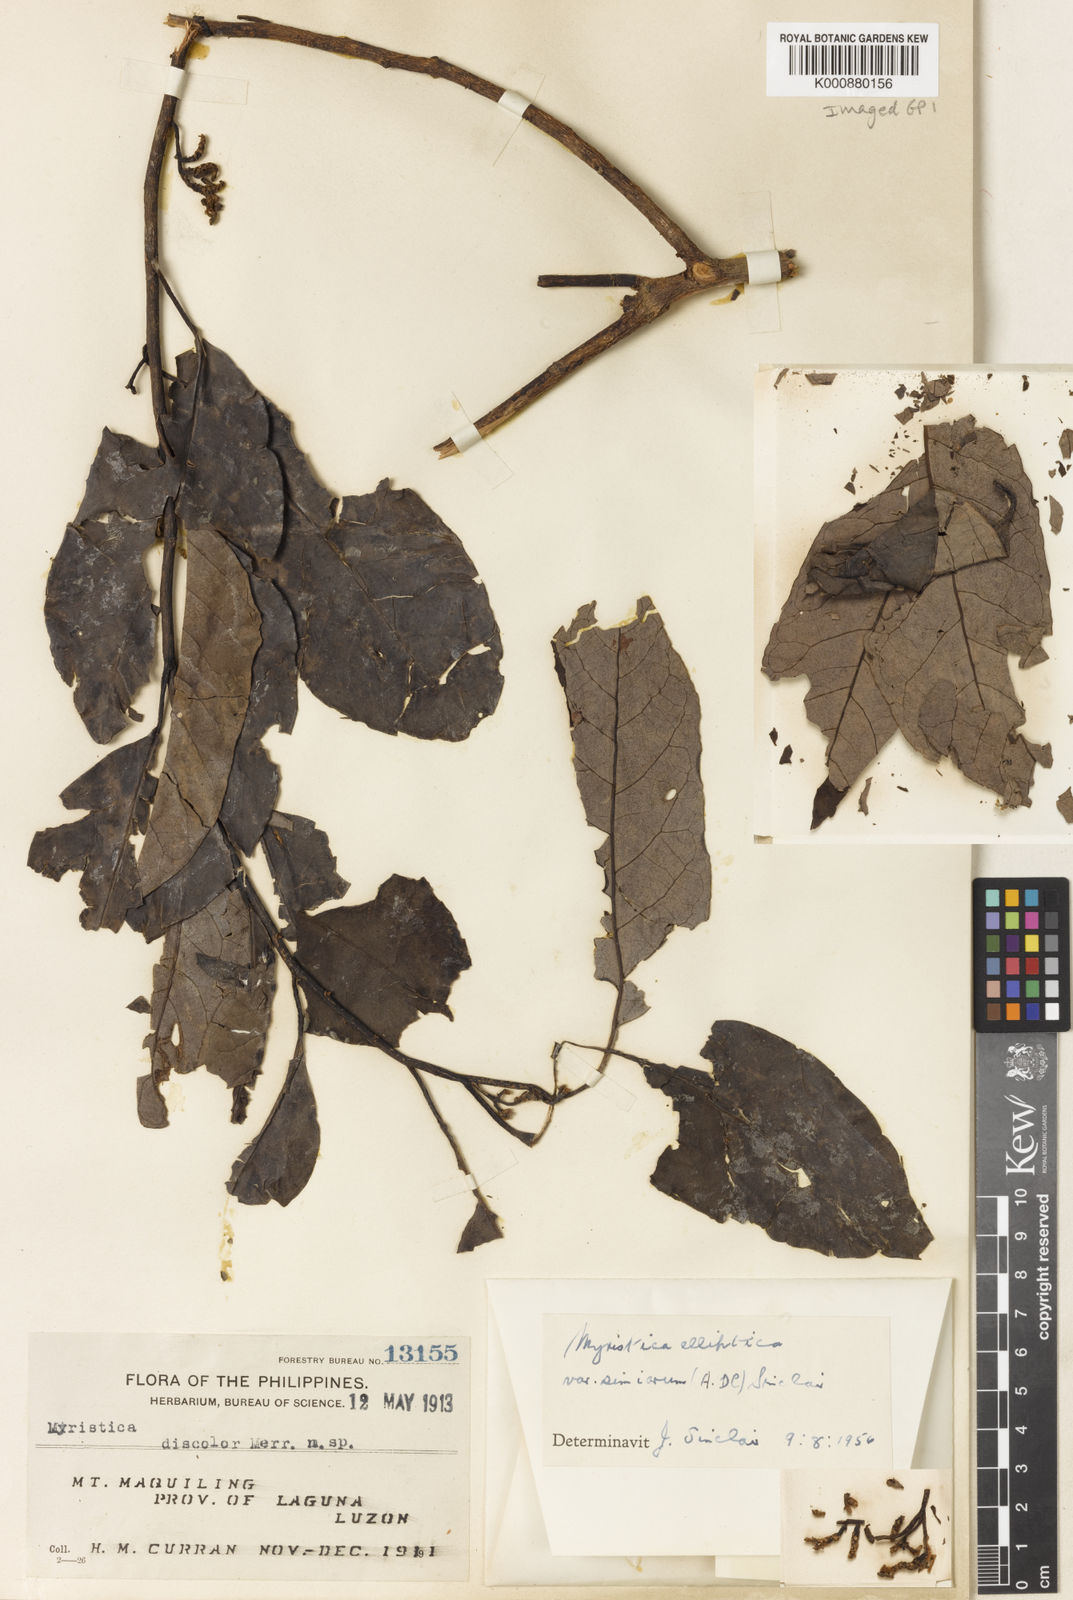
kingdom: Plantae
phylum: Tracheophyta
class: Magnoliopsida
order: Magnoliales
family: Myristicaceae
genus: Myristica
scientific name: Myristica elliptica
